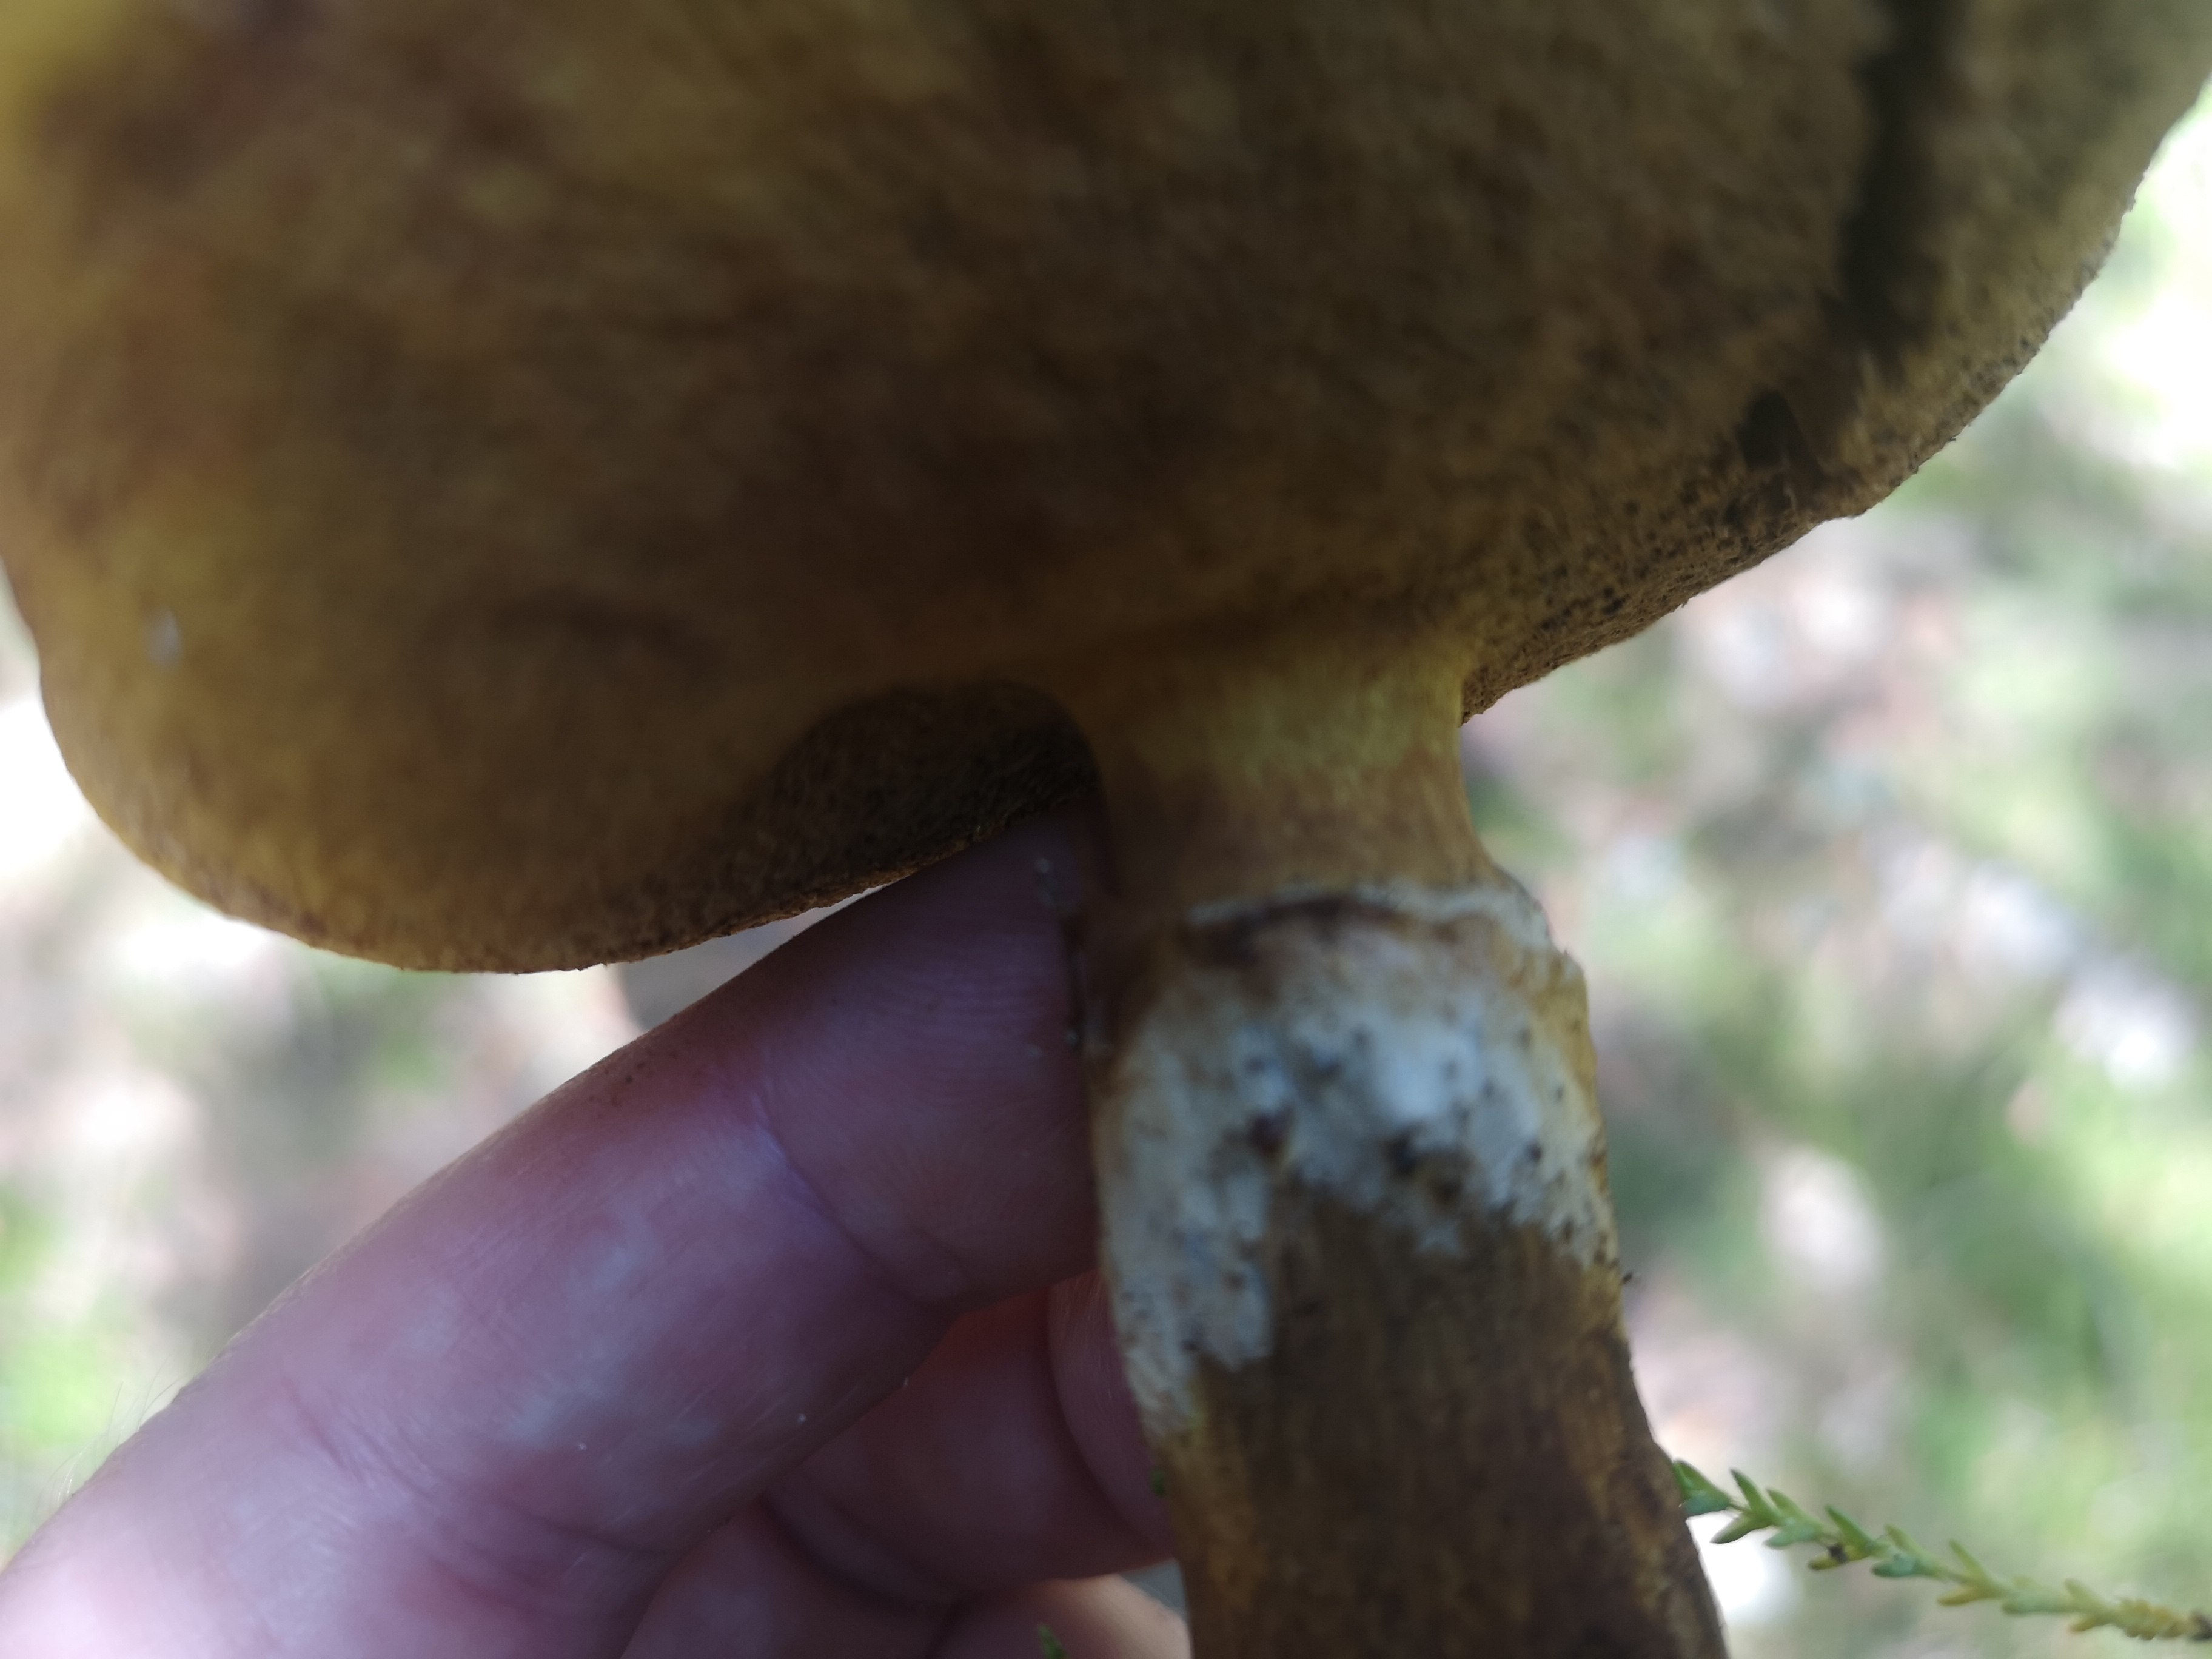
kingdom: Fungi
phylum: Basidiomycota
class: Agaricomycetes
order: Boletales
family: Suillaceae
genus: Suillus
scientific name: Suillus grevillei
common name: lærke-slimrørhat
